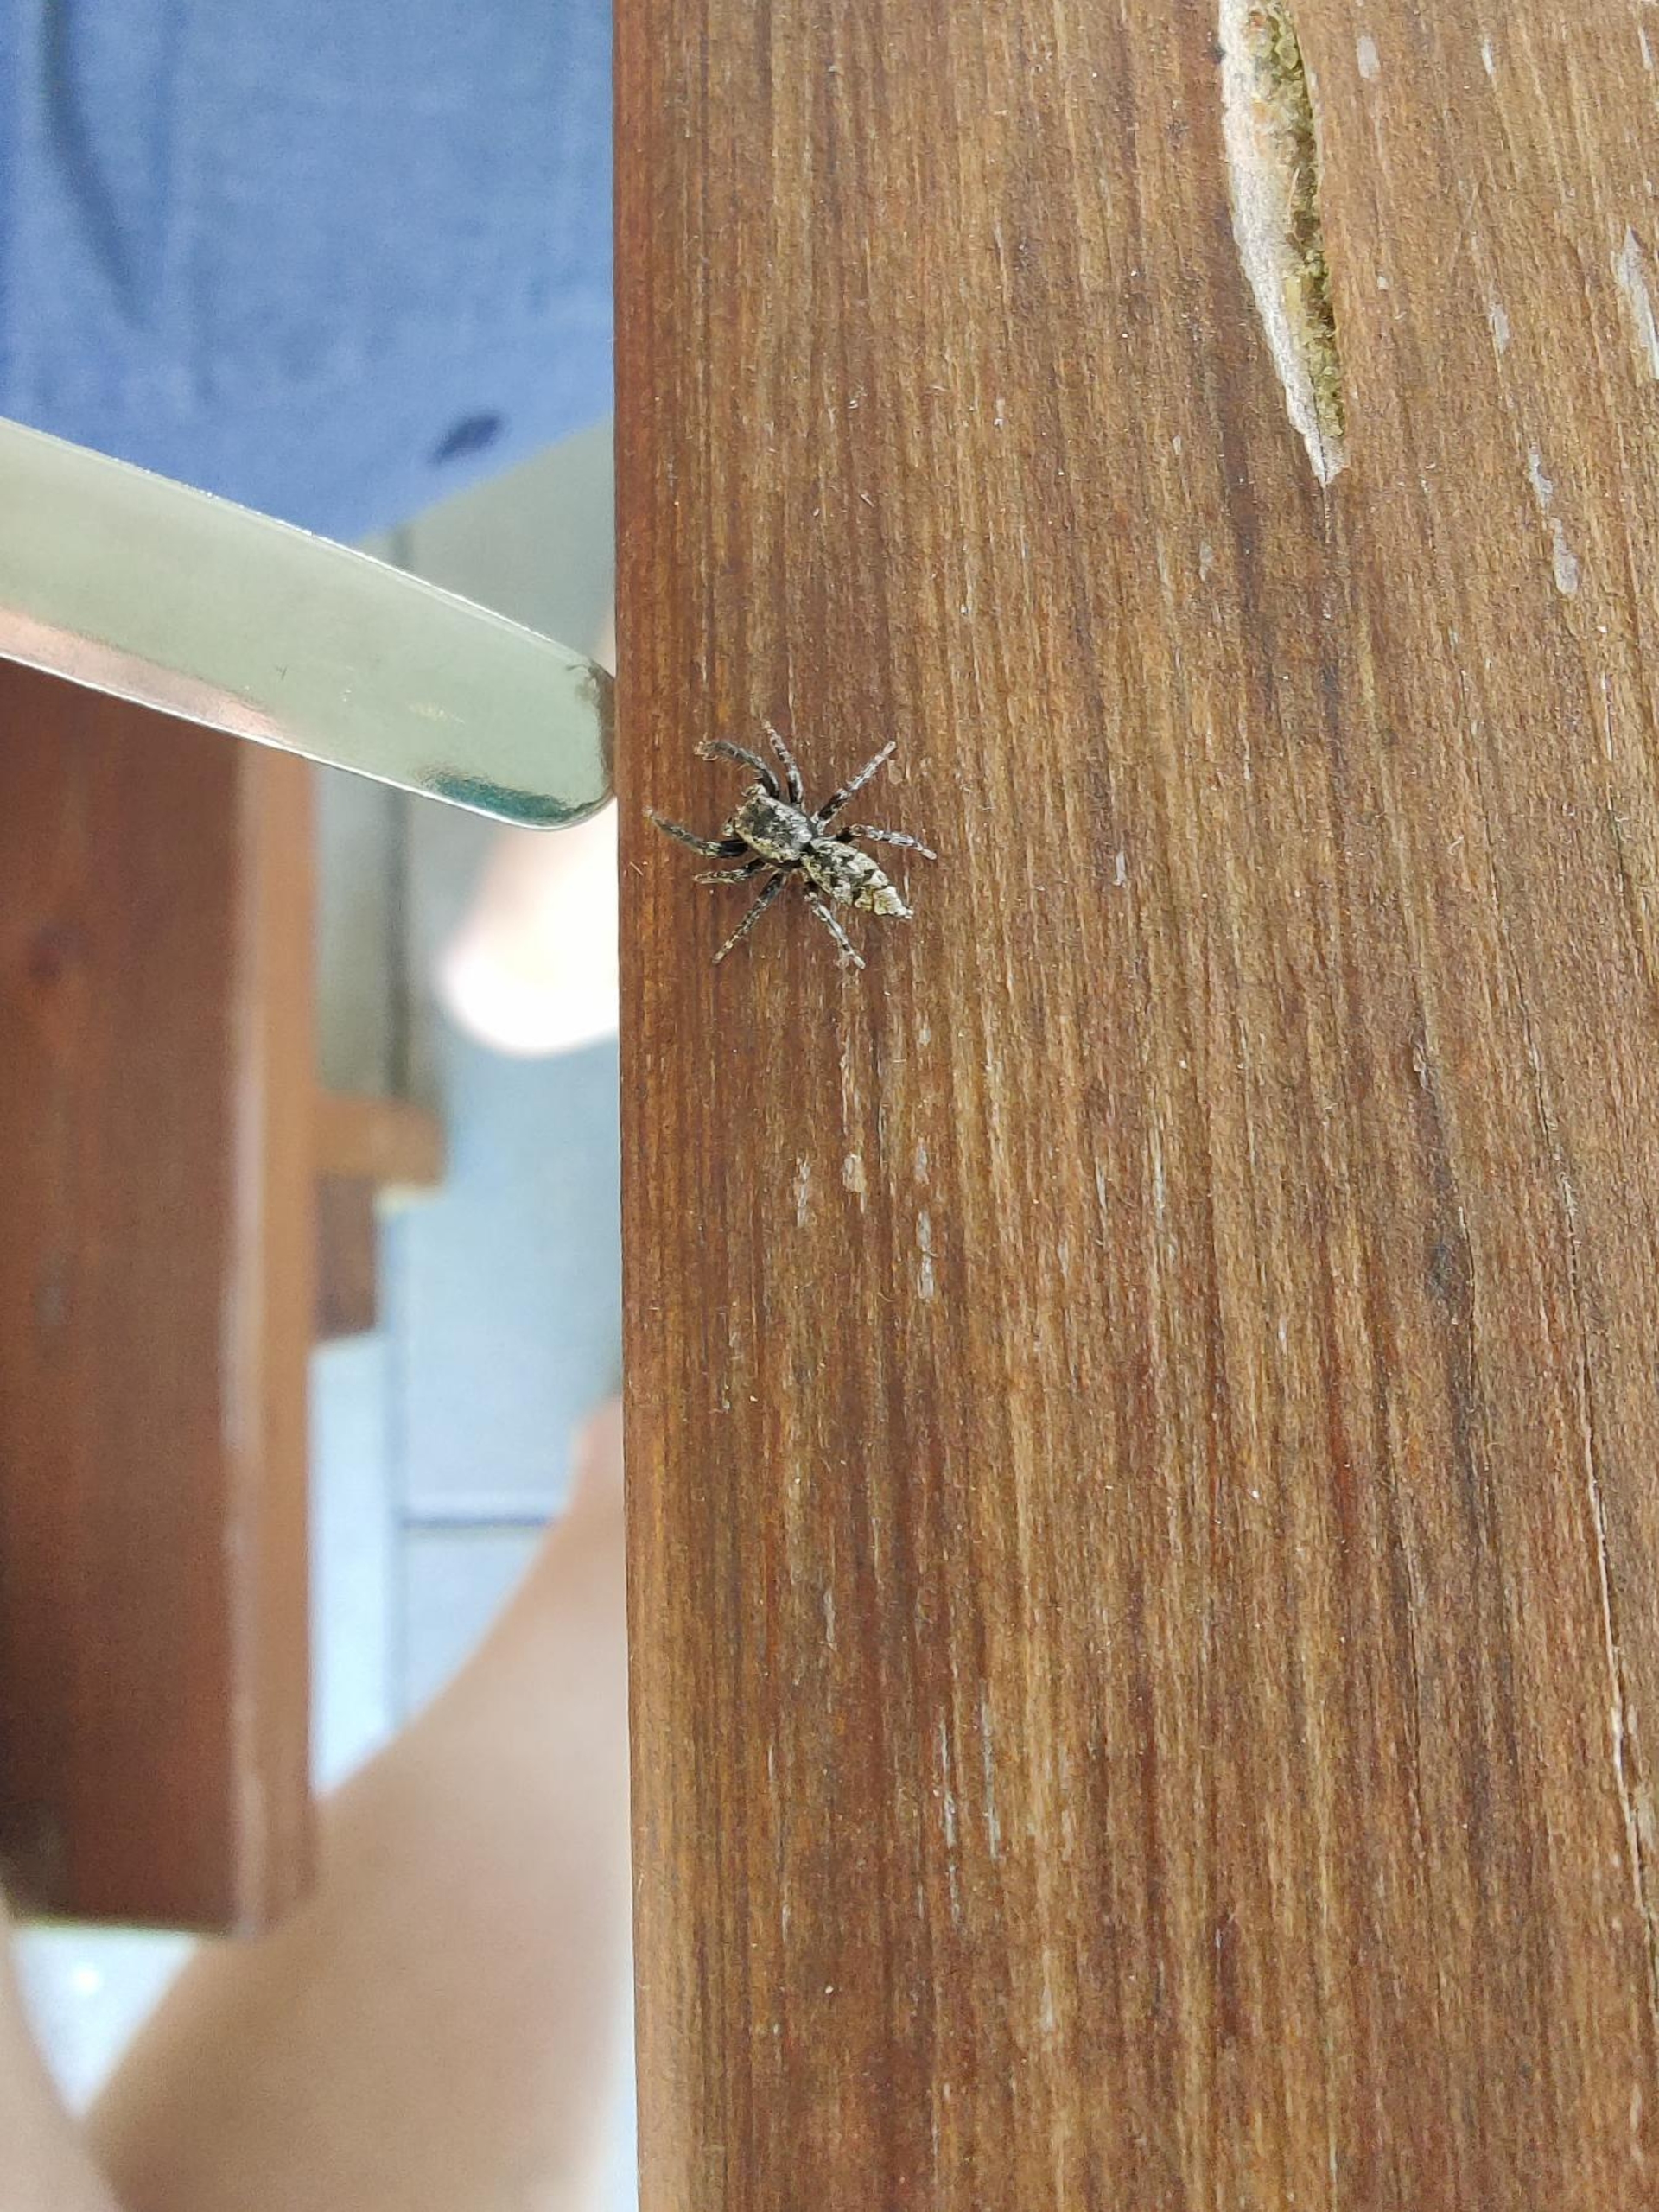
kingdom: Animalia
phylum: Arthropoda
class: Arachnida
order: Araneae
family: Salticidae
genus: Marpissa
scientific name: Marpissa muscosa
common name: Stor springedderkop
